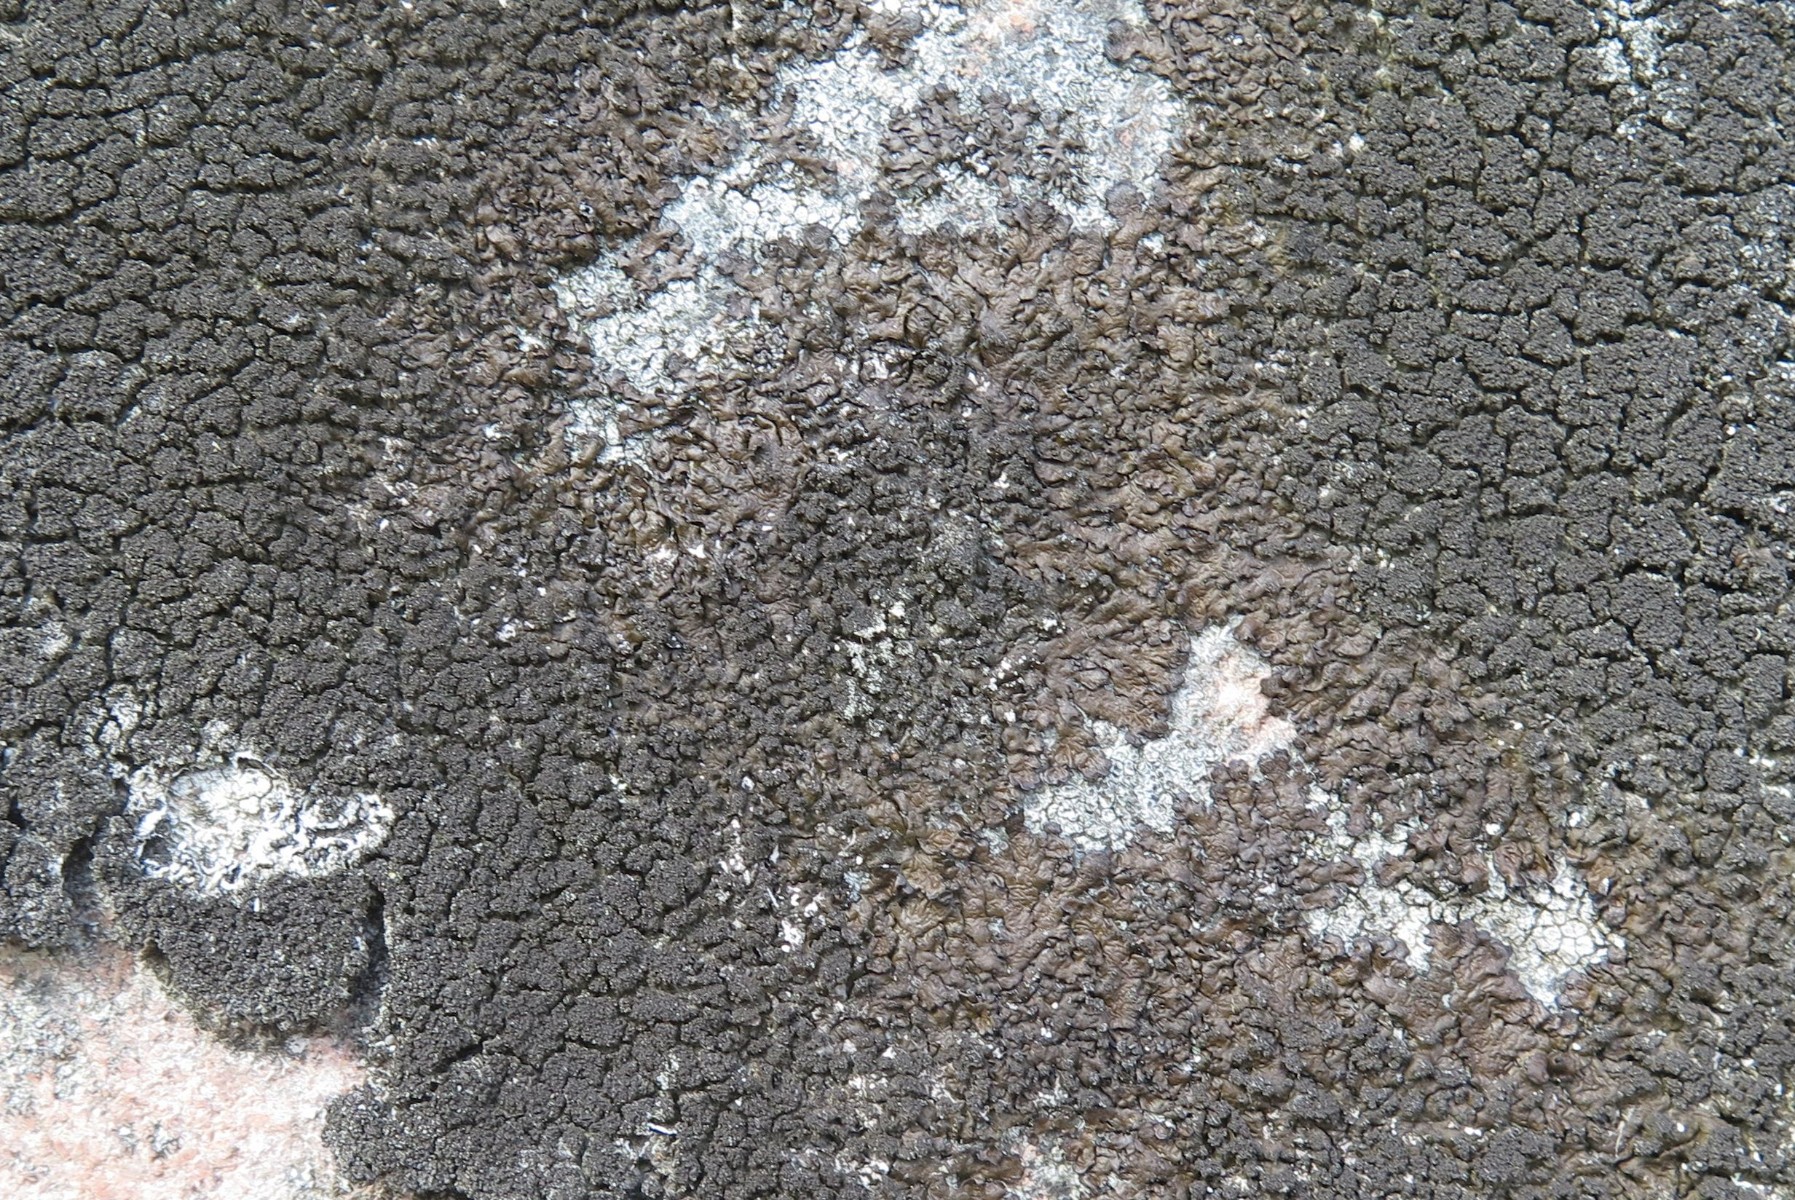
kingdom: Fungi
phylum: Ascomycota
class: Lecanoromycetes
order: Lecanorales
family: Parmeliaceae
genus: Melanelixia
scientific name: Melanelixia fuliginosa
